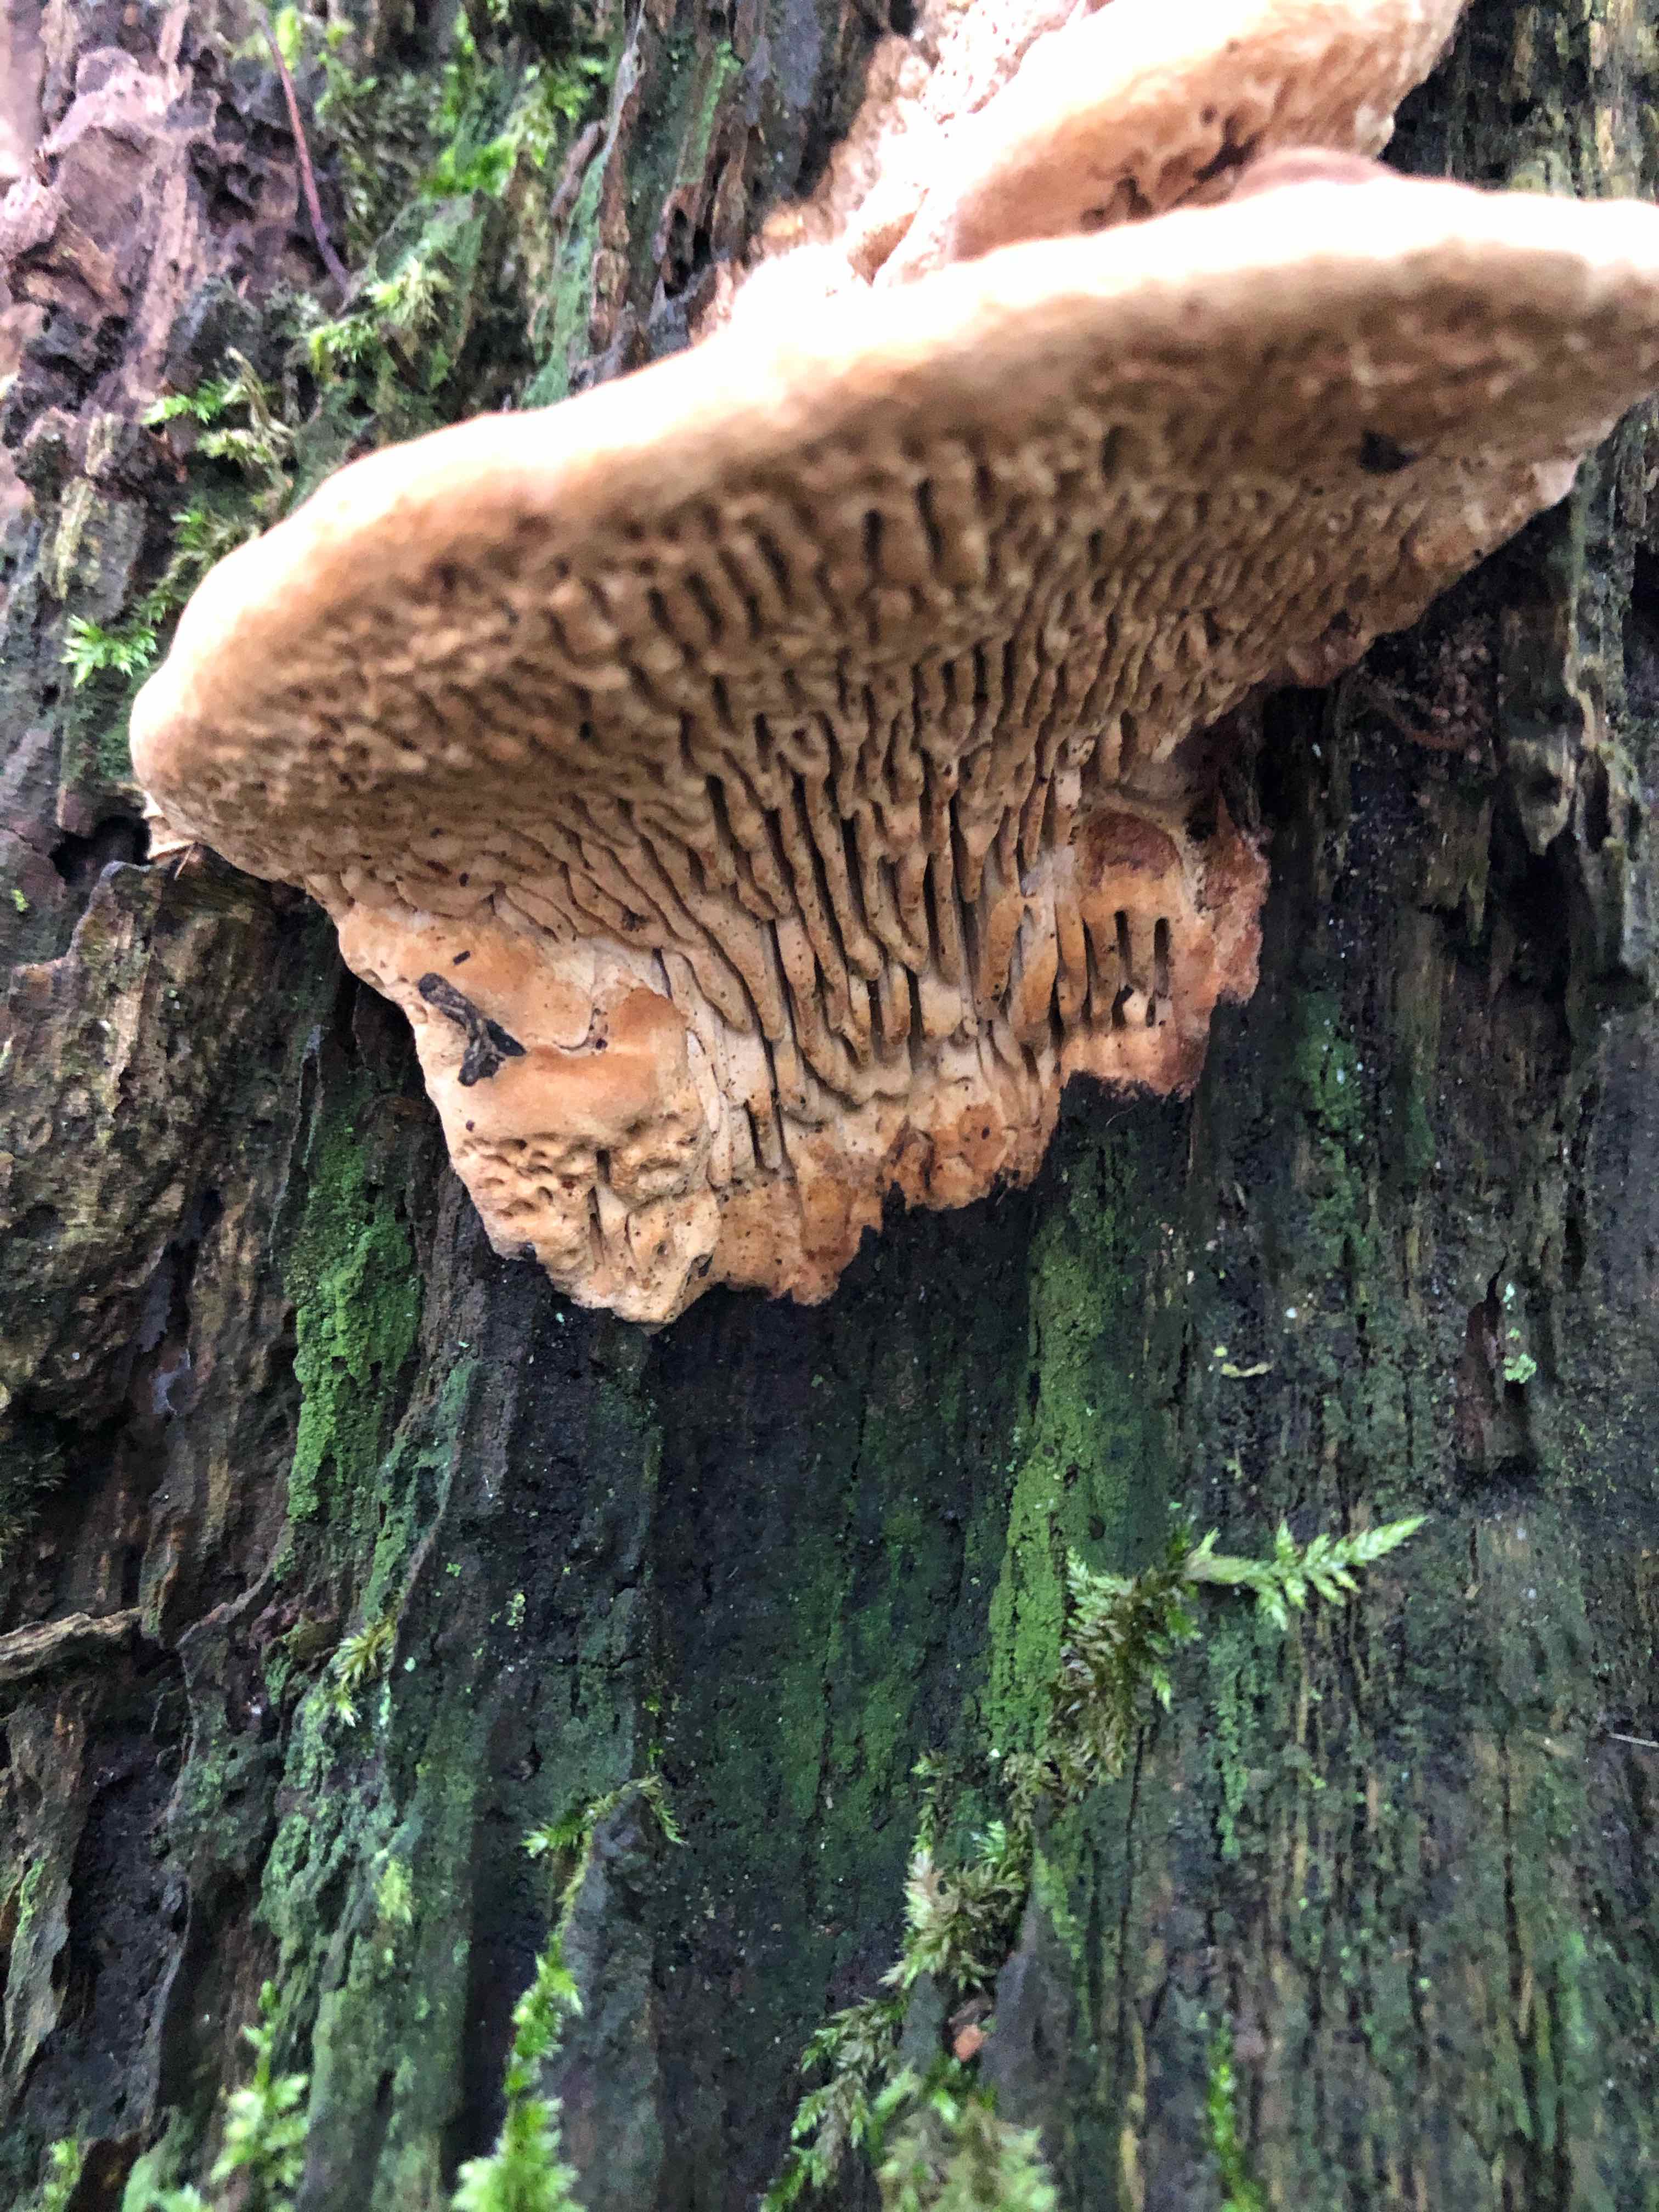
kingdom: Fungi
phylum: Basidiomycota
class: Agaricomycetes
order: Polyporales
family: Fomitopsidaceae
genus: Daedalea
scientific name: Daedalea quercina
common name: ege-labyrintsvamp
